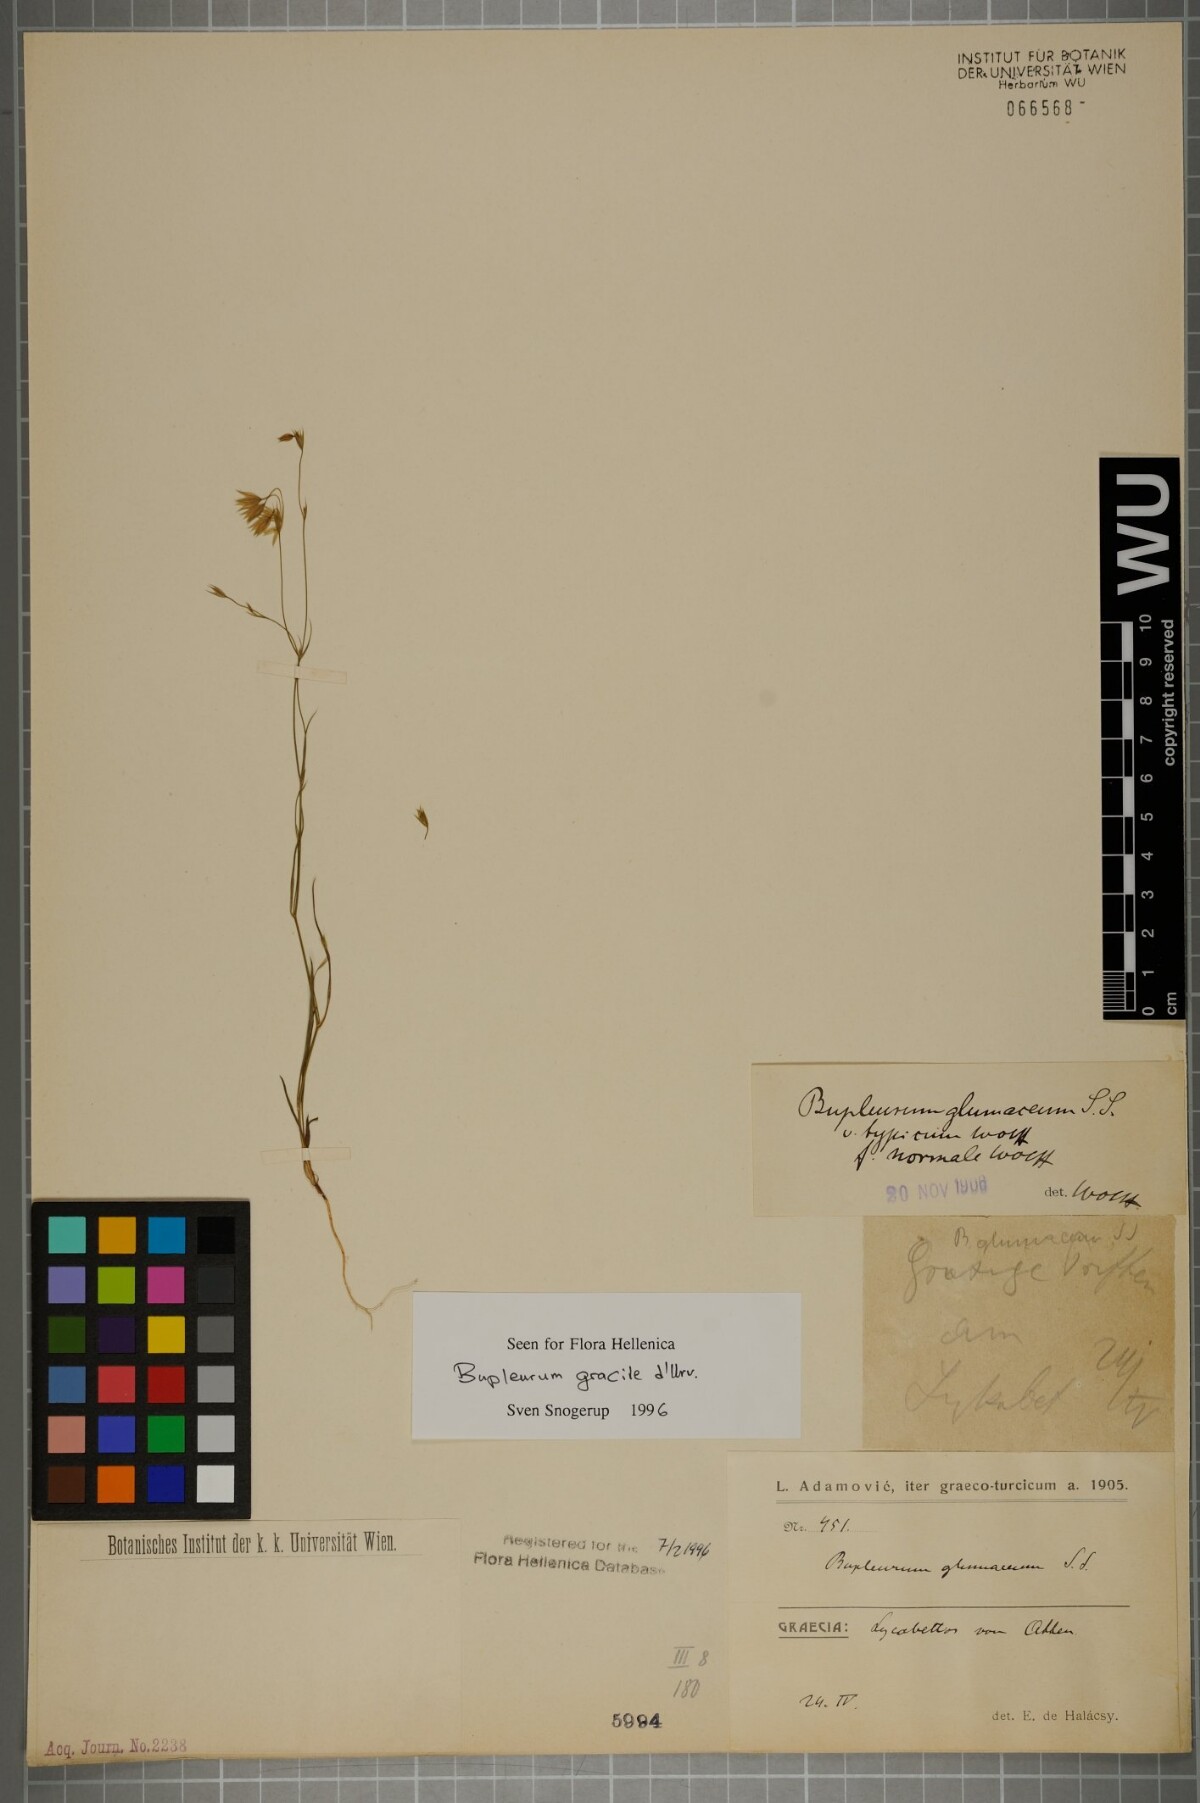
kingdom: Plantae
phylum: Tracheophyta
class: Magnoliopsida
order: Apiales
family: Apiaceae
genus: Bupleurum
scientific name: Bupleurum gracile
